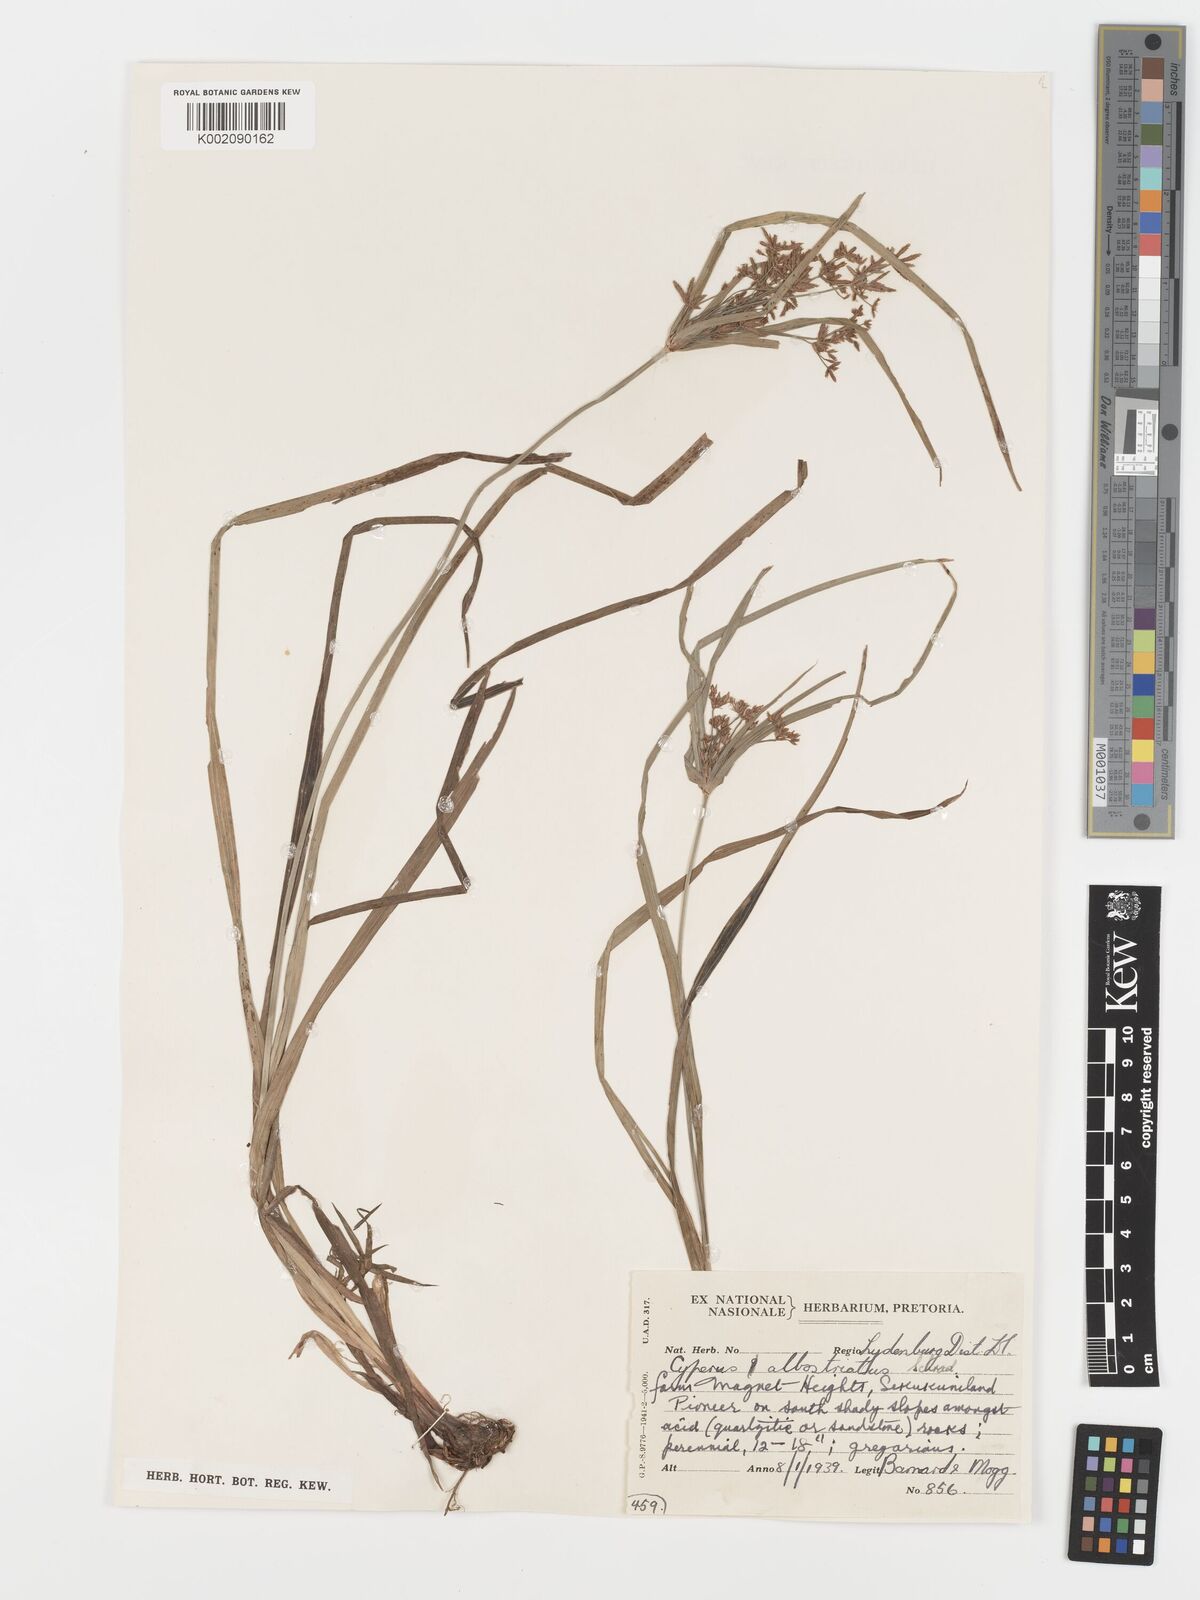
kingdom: Plantae
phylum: Tracheophyta
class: Liliopsida
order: Poales
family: Cyperaceae
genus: Cyperus
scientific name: Cyperus albostriatus
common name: Dwarf umbrella-grass
